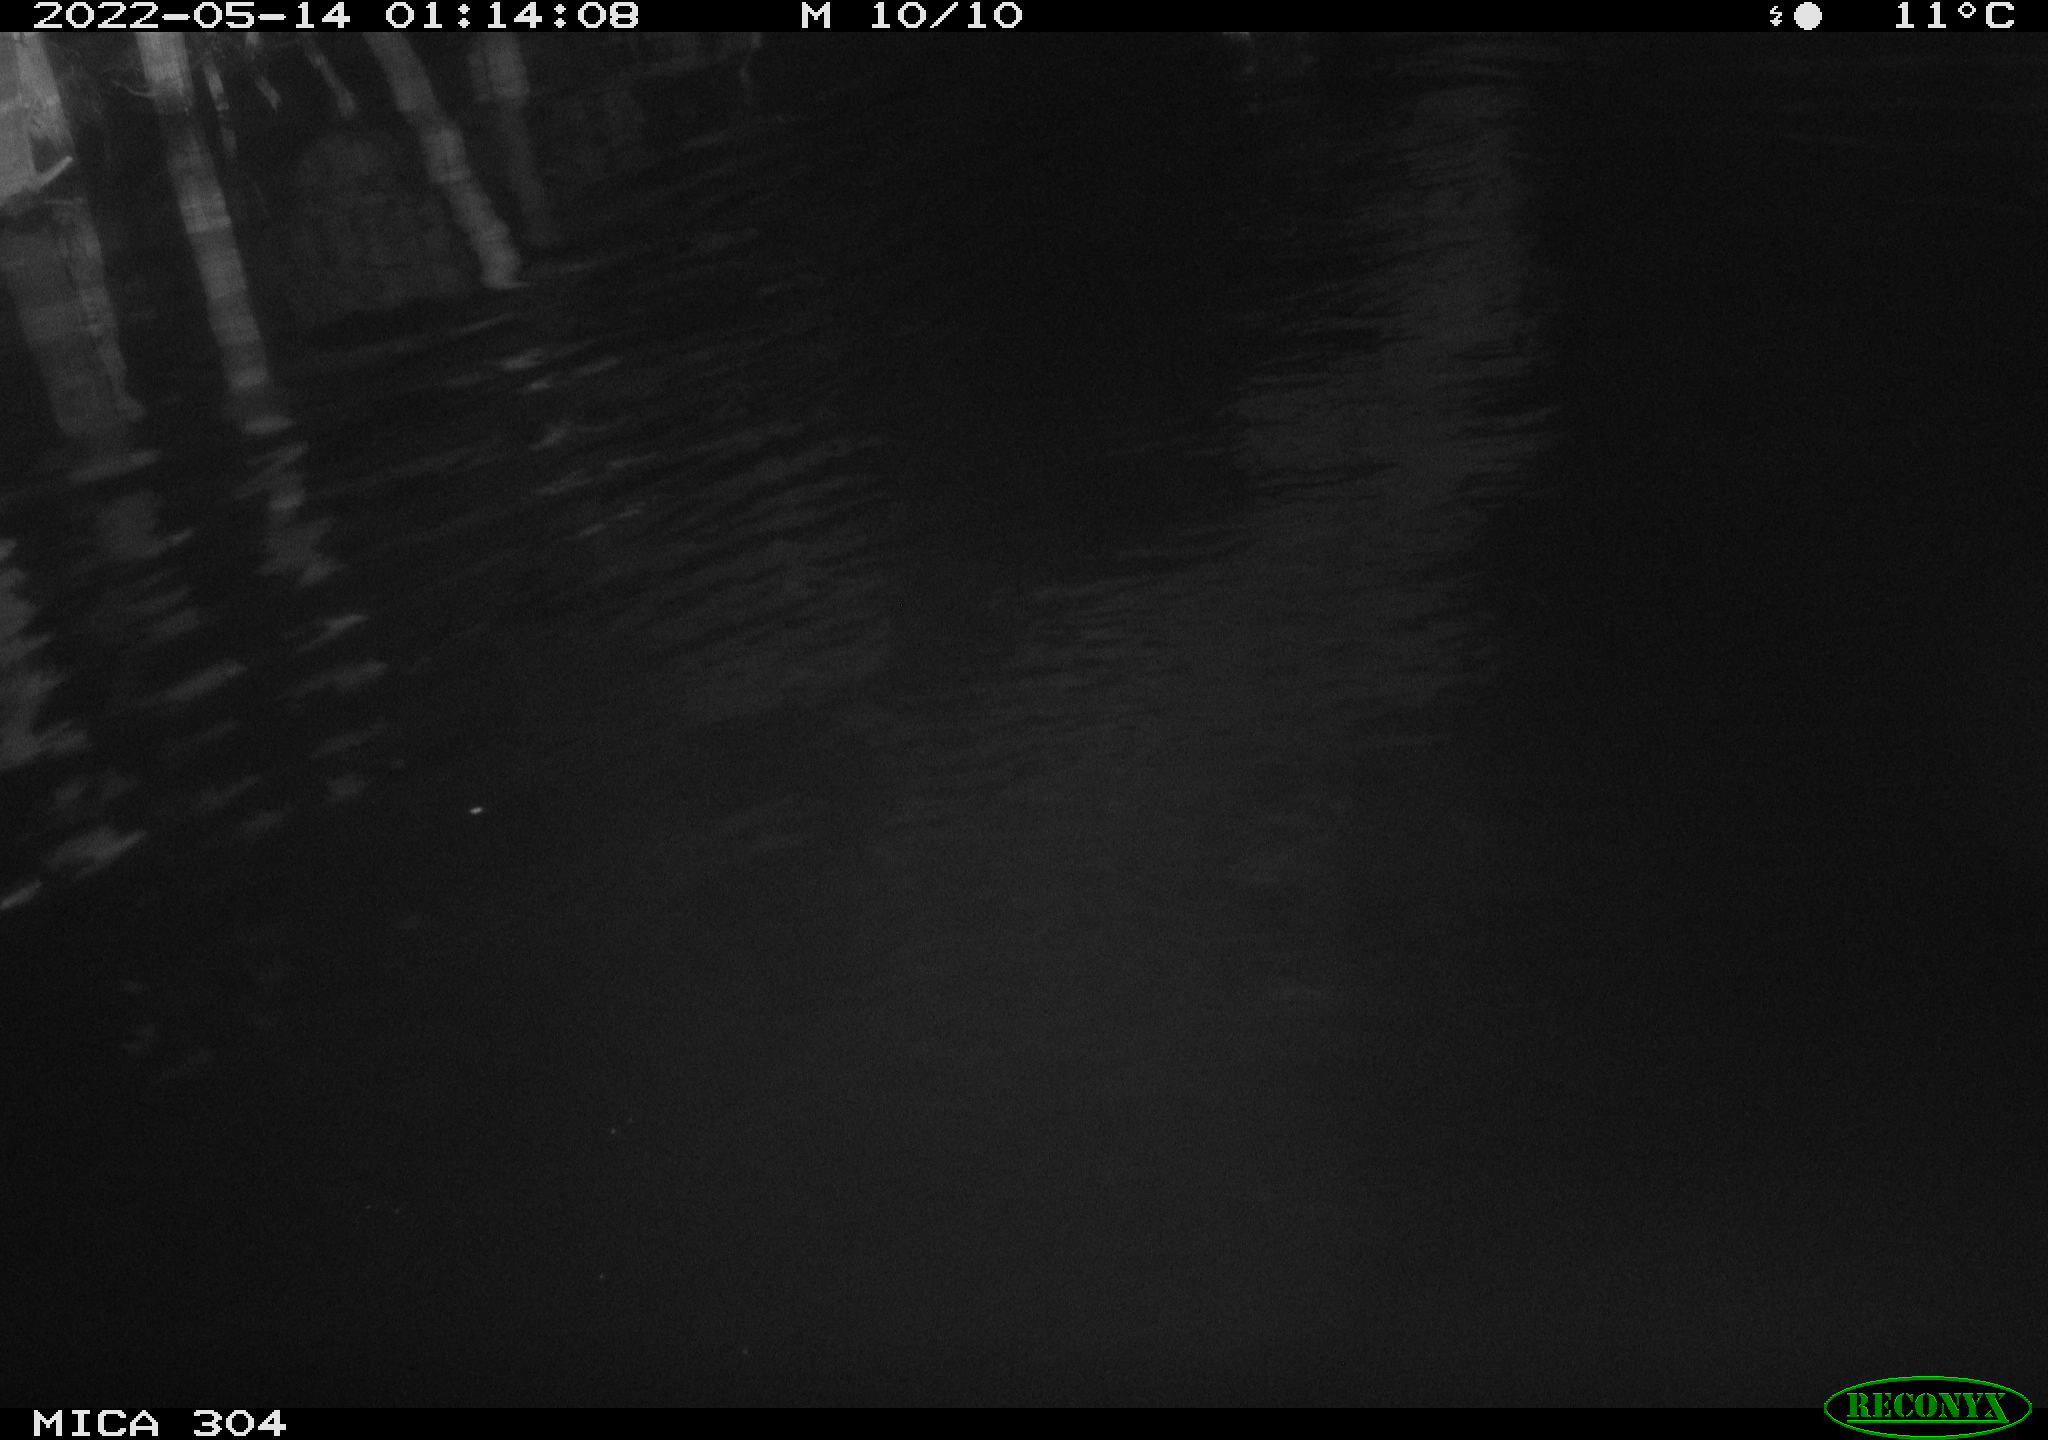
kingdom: Animalia
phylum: Chordata
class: Aves
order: Anseriformes
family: Anatidae
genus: Anas
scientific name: Anas platyrhynchos
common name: Mallard
